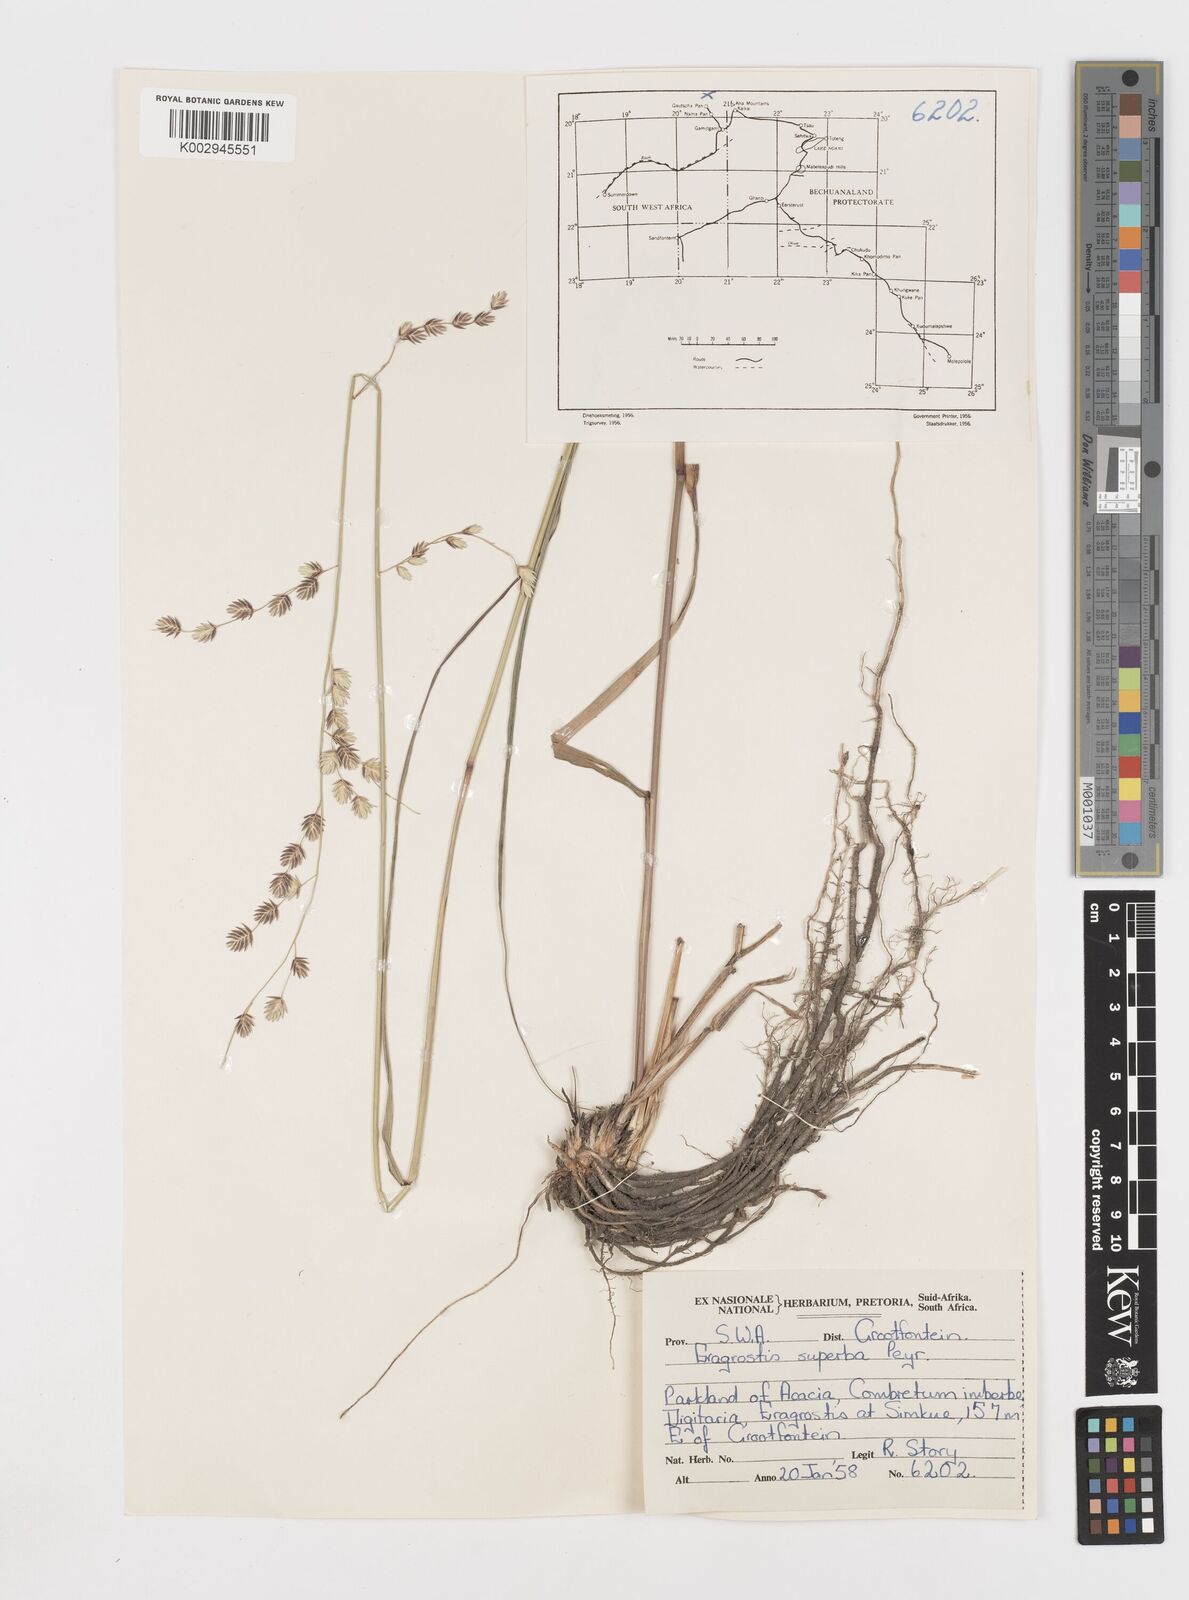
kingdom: Plantae
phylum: Tracheophyta
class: Liliopsida
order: Poales
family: Poaceae
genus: Eragrostis
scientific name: Eragrostis superba
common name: Wilman lovegrass
